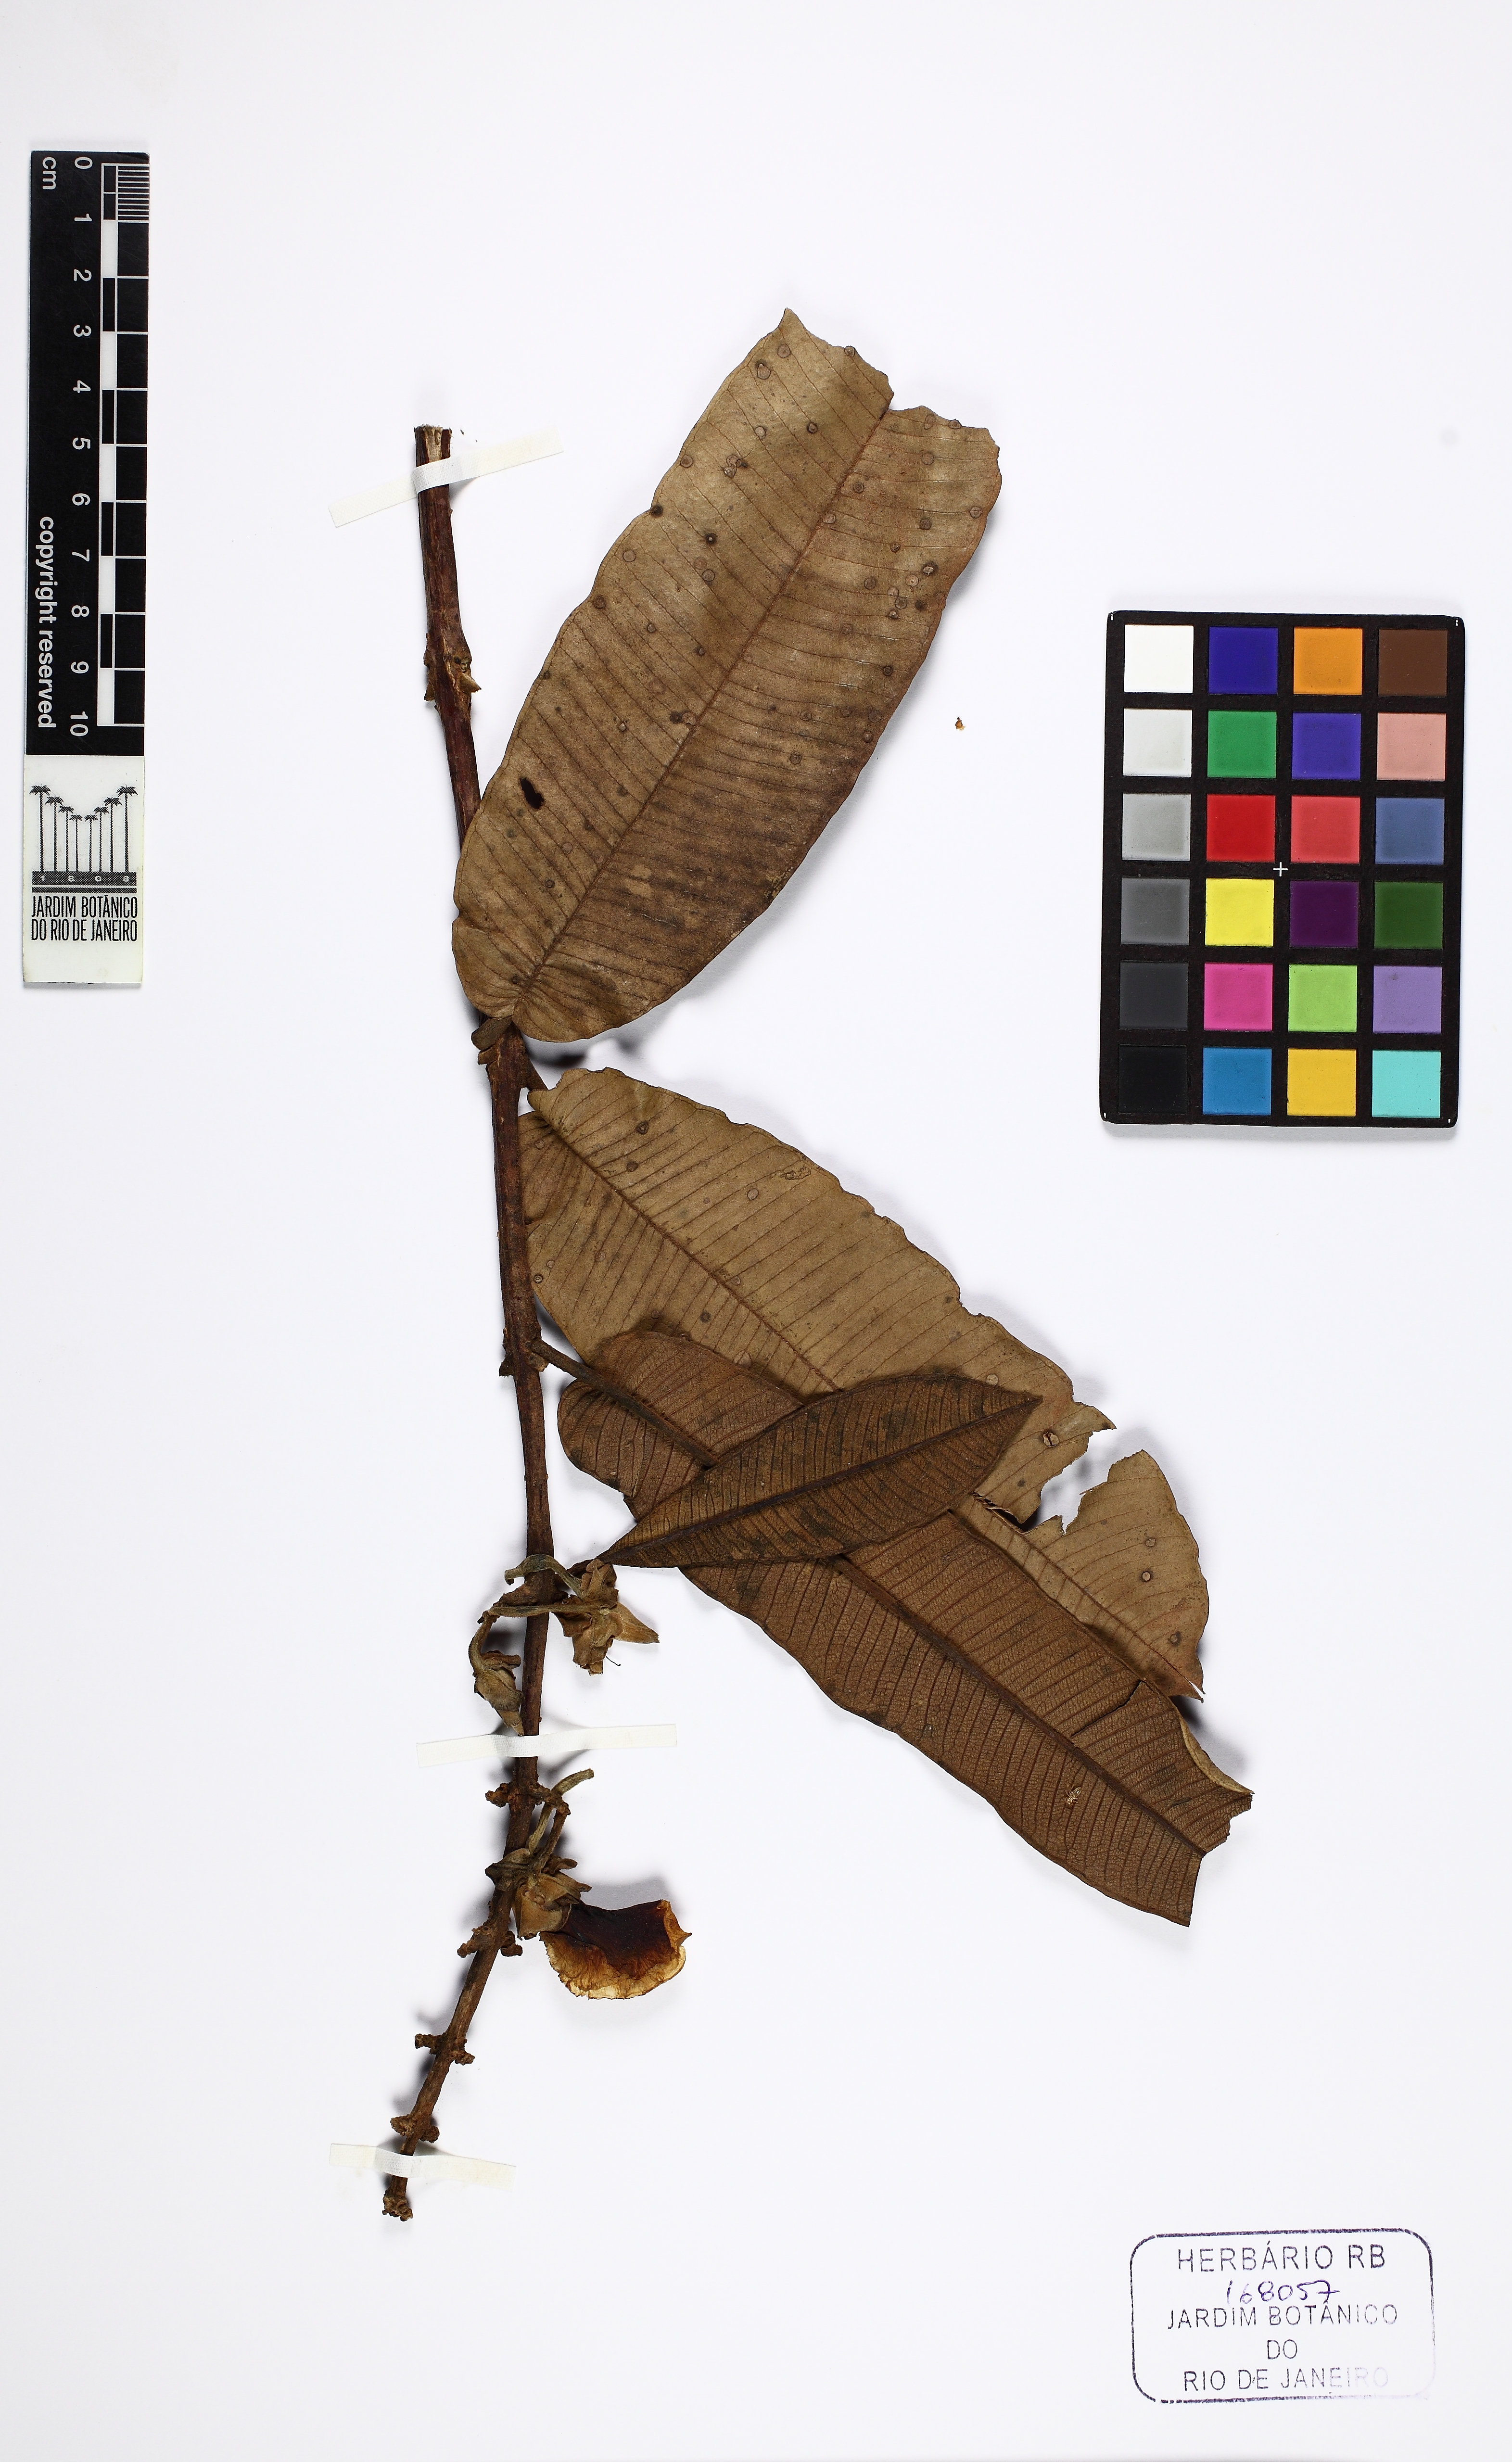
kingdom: Plantae
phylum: Tracheophyta
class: Magnoliopsida
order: Myrtales
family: Vochysiaceae
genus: Qualea
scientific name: Qualea grandiflora
